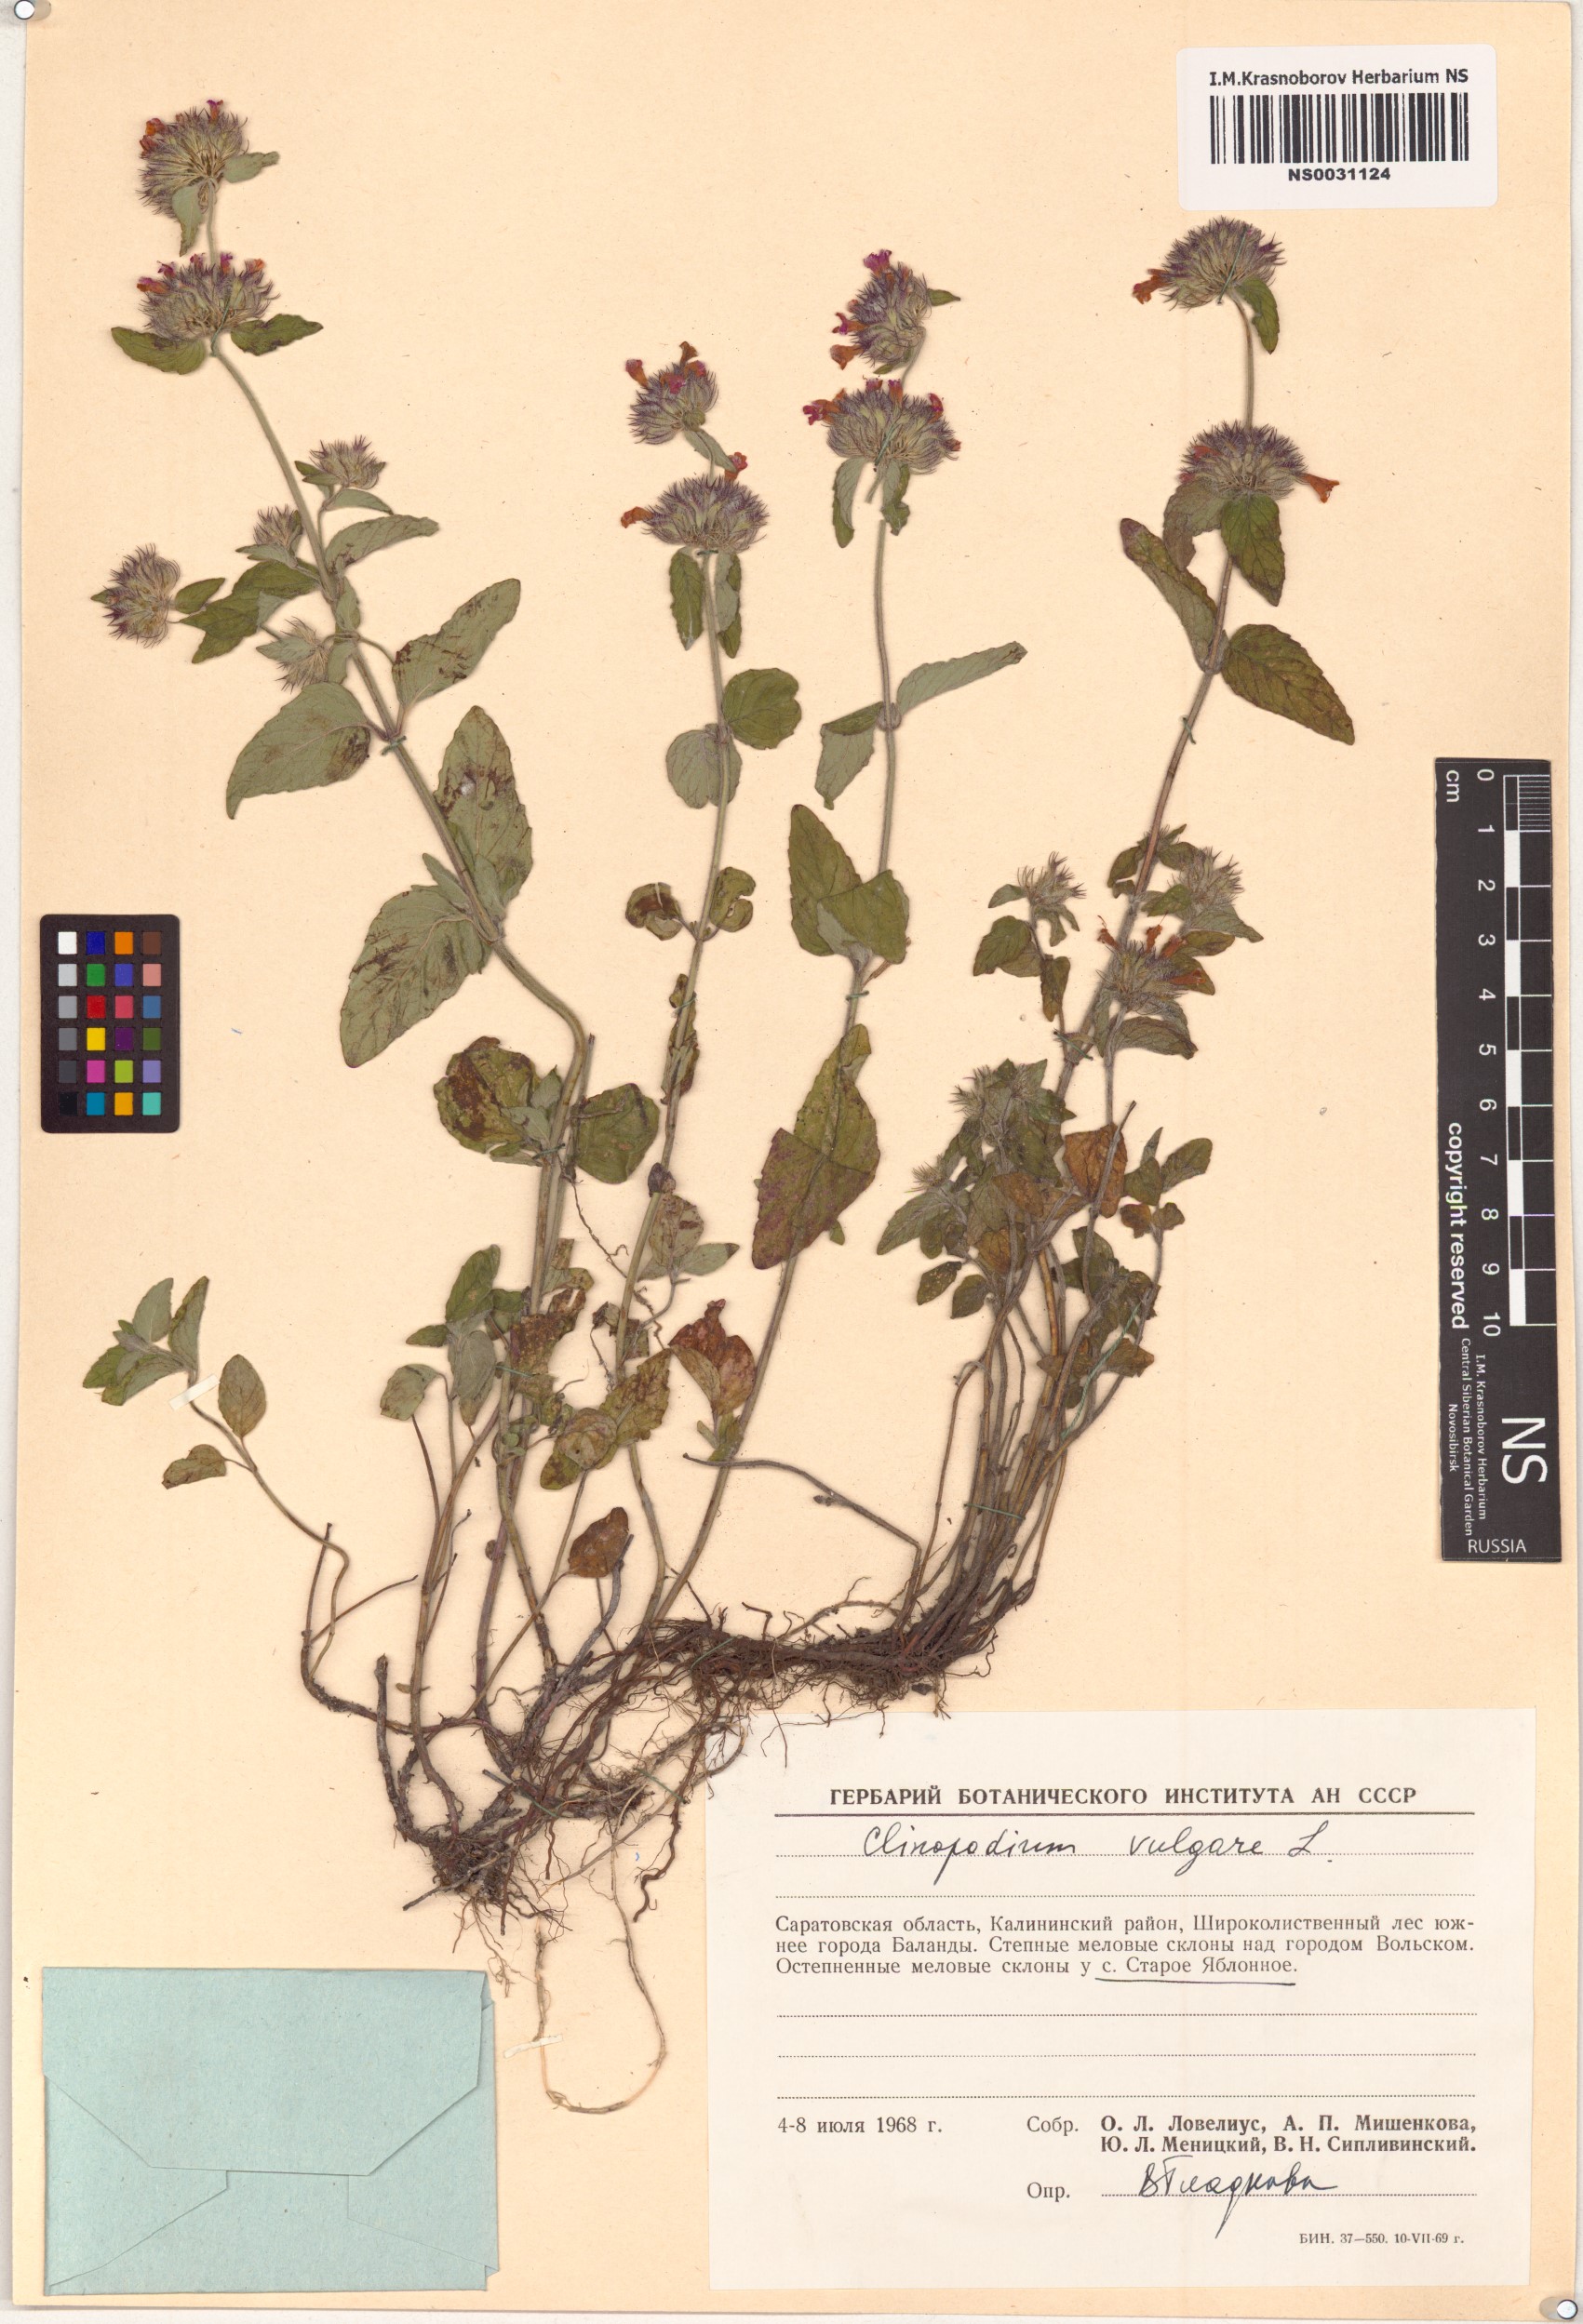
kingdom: Plantae
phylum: Tracheophyta
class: Magnoliopsida
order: Lamiales
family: Lamiaceae
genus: Clinopodium
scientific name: Clinopodium vulgare
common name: Wild basil
